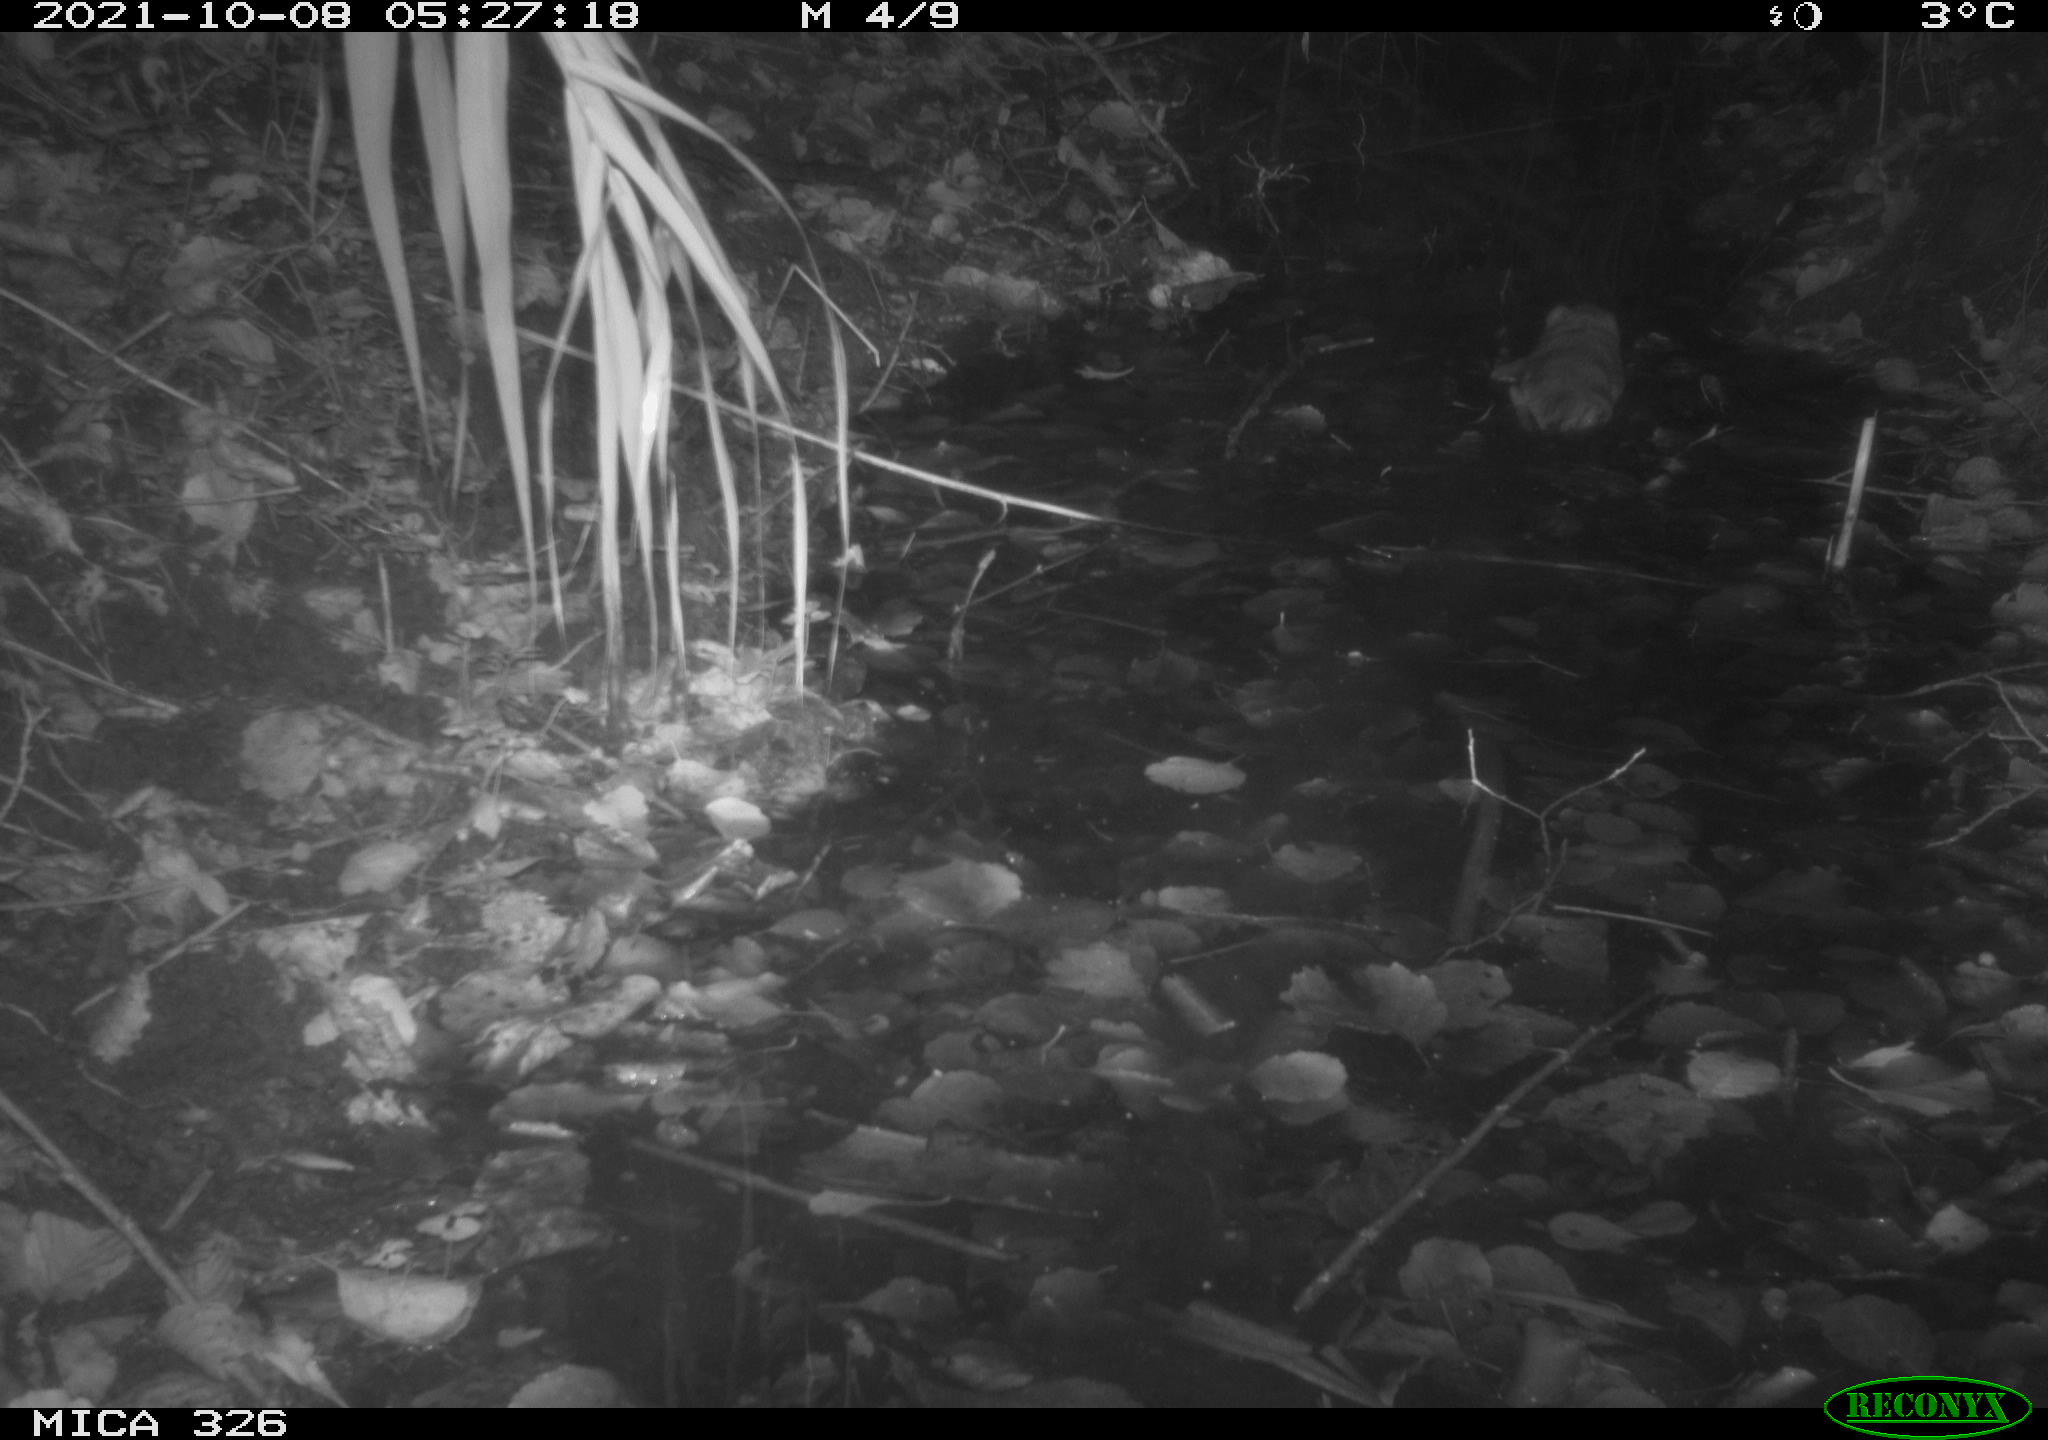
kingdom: Animalia
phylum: Chordata
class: Mammalia
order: Rodentia
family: Cricetidae
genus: Ondatra
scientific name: Ondatra zibethicus
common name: Muskrat
